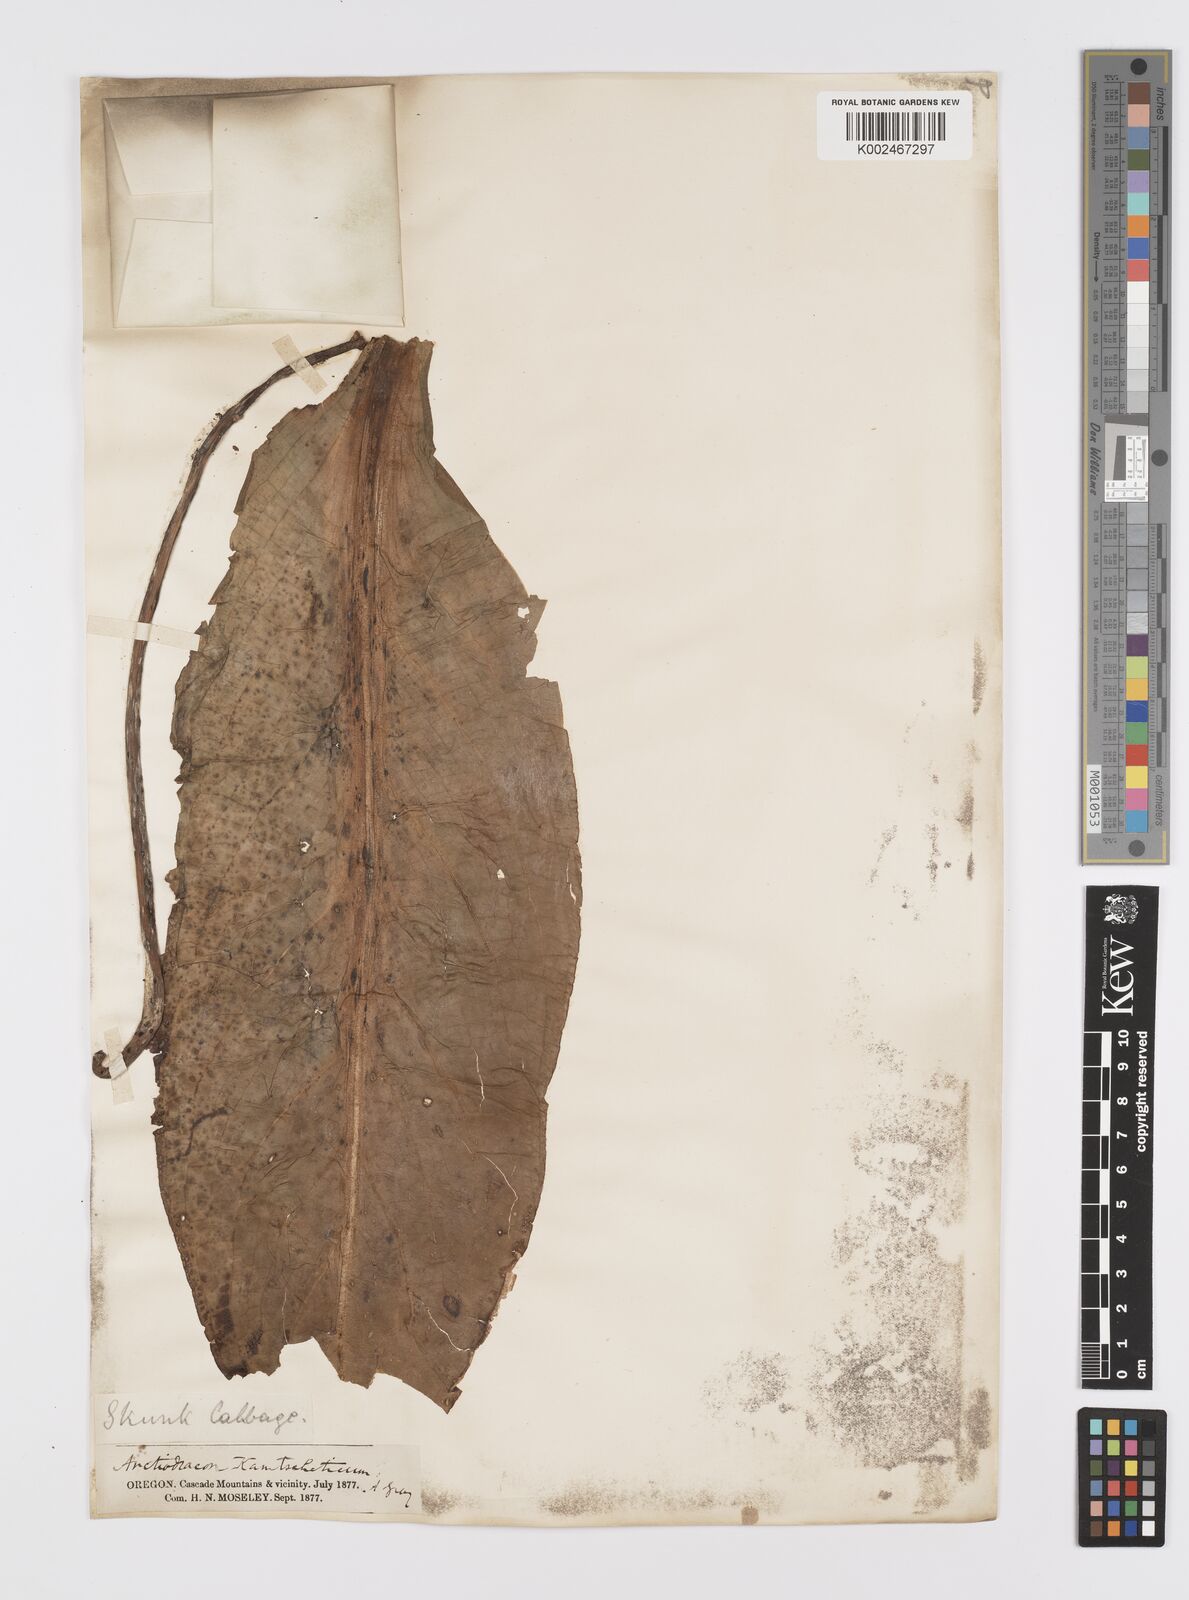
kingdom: Plantae
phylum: Tracheophyta
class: Liliopsida
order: Alismatales
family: Araceae
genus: Lysichiton
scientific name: Lysichiton americanus
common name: American skunk cabbage
